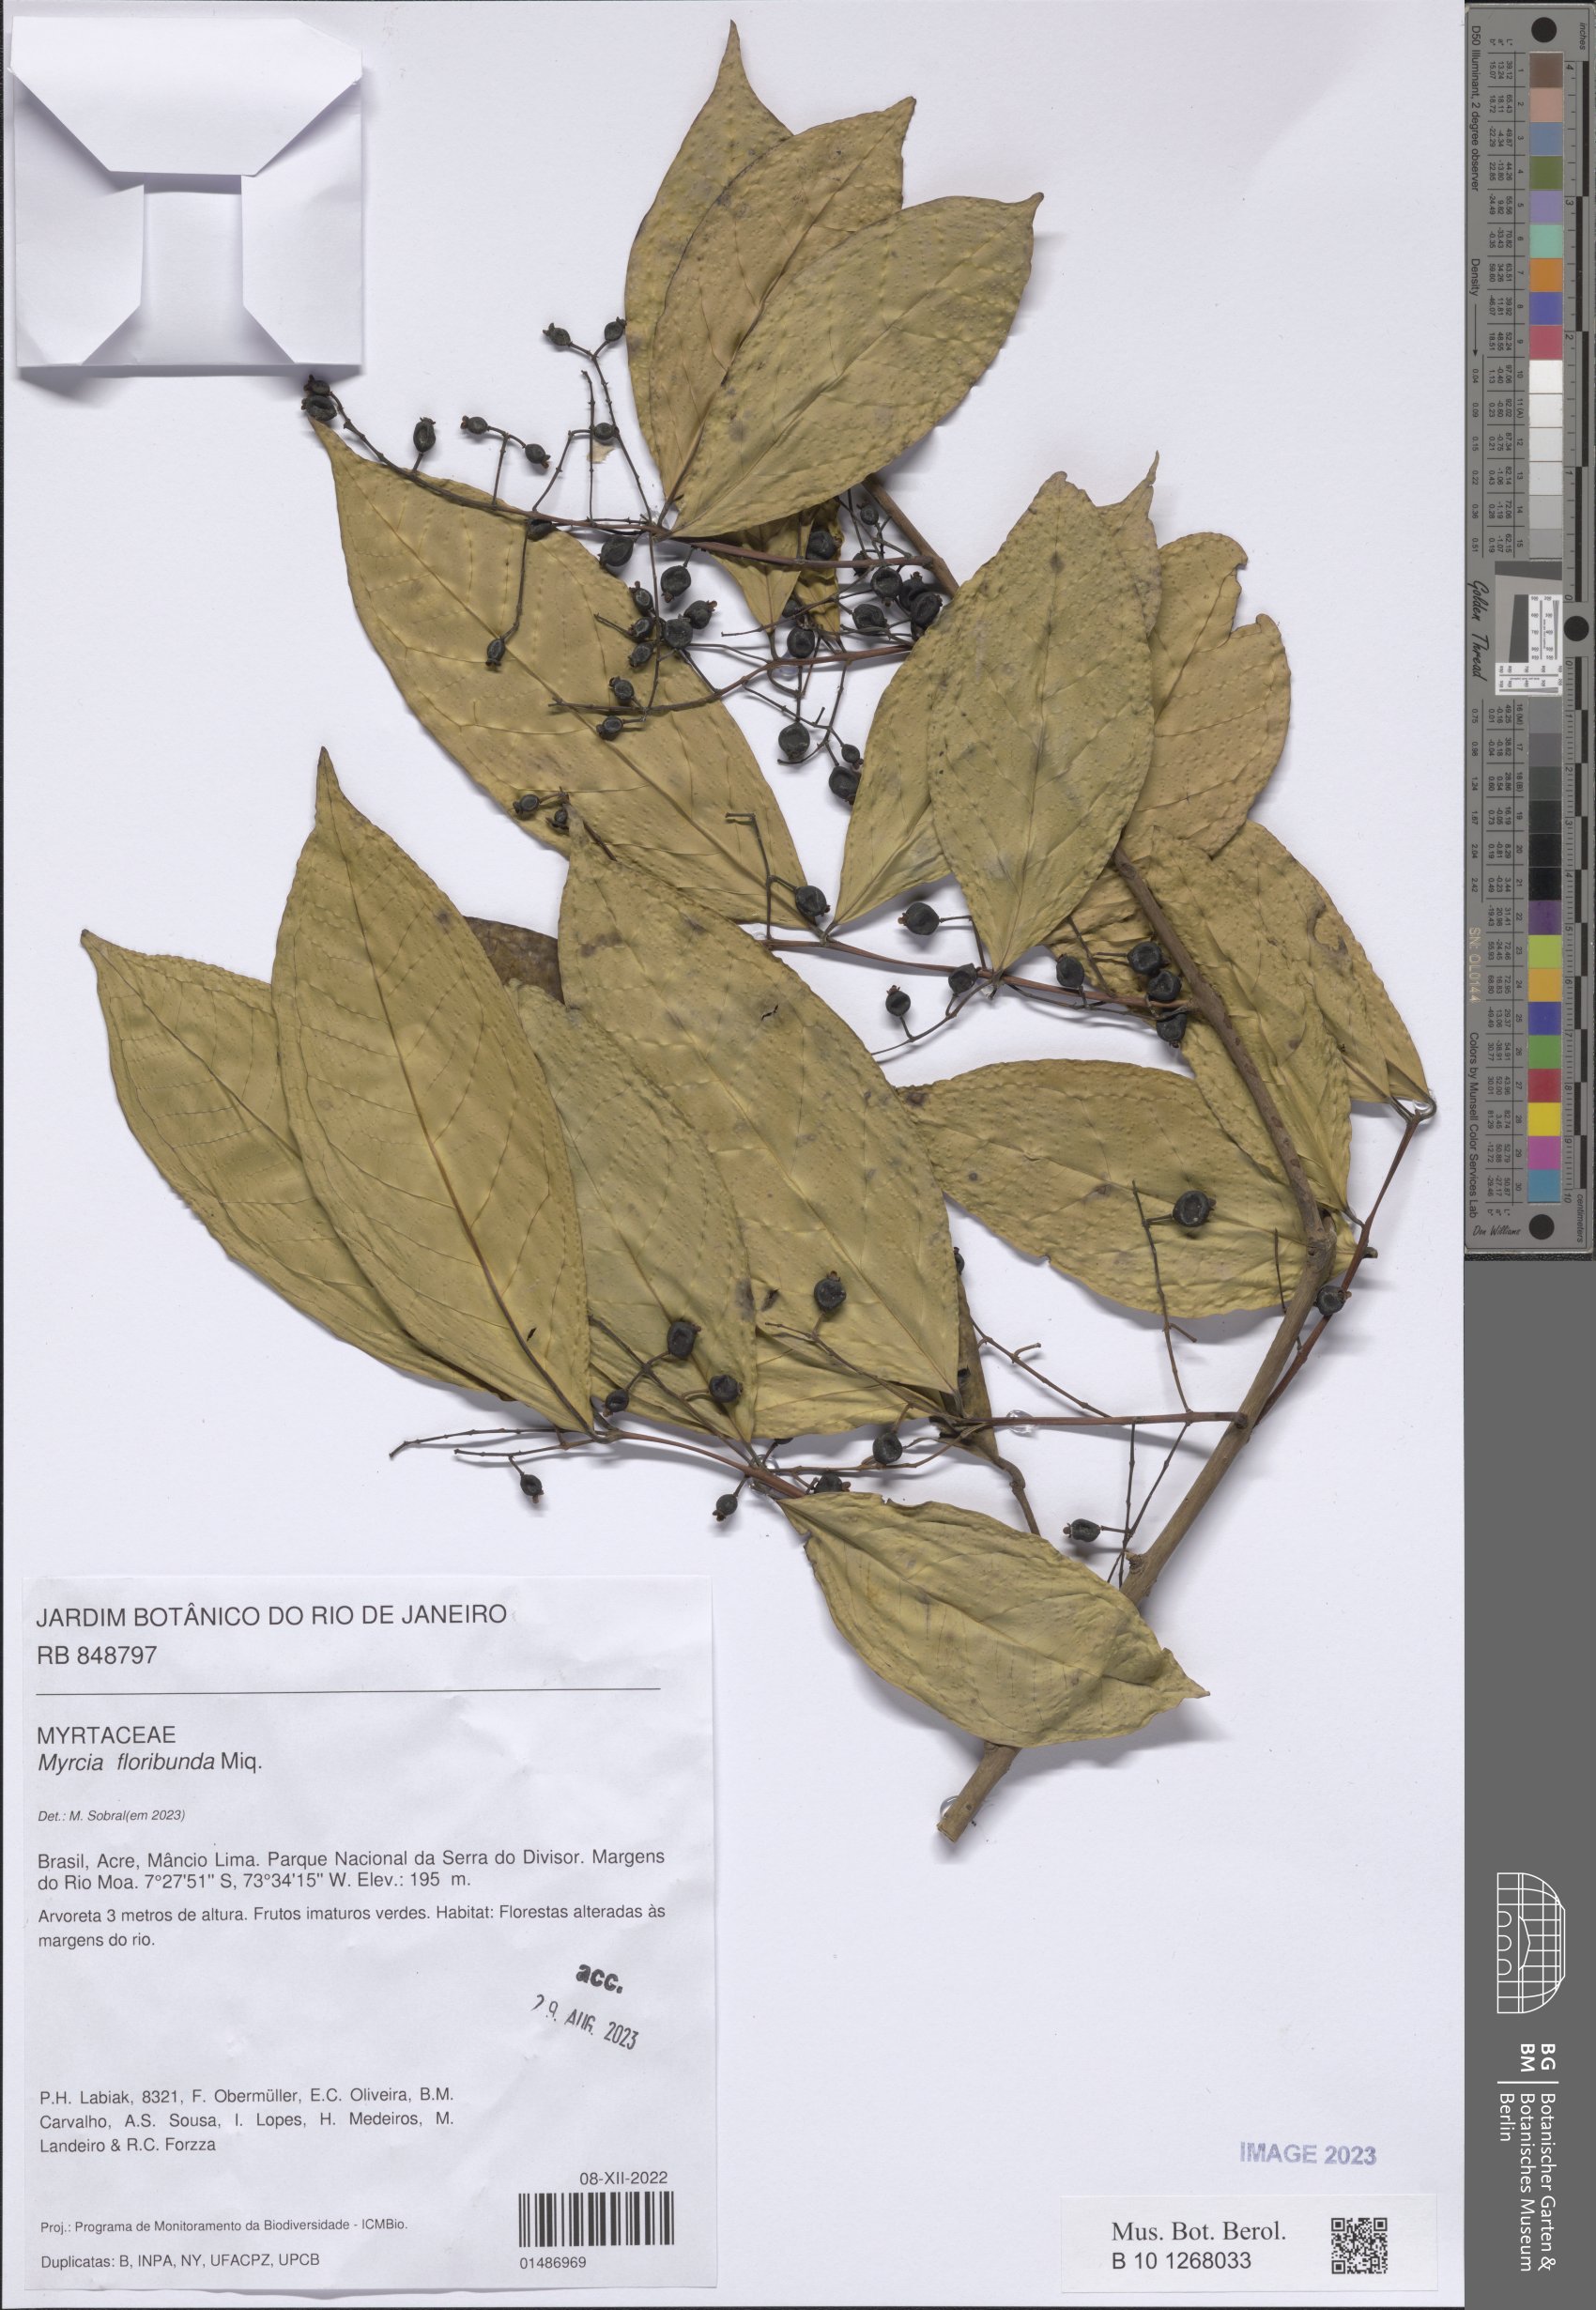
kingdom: Plantae
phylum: Tracheophyta
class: Magnoliopsida
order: Myrtales
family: Myrtaceae
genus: Myrcia
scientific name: Myrcia tomentosa
